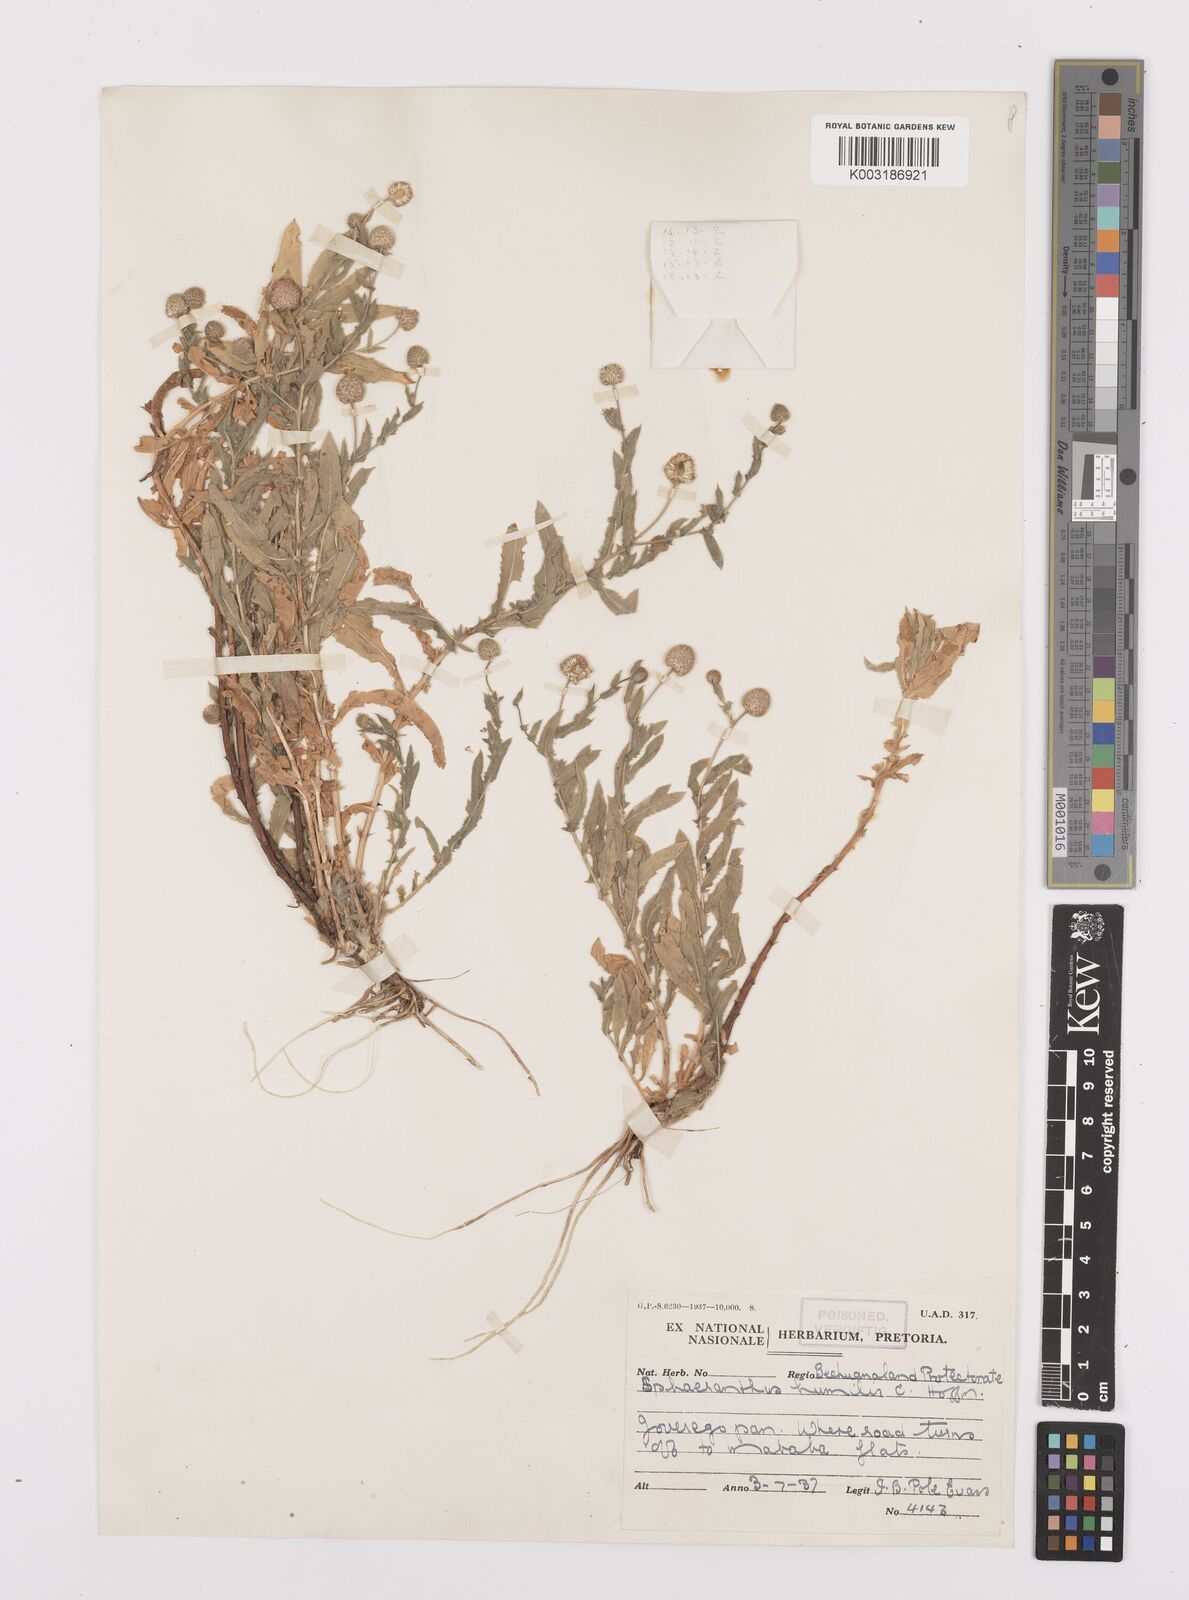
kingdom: Plantae
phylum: Tracheophyta
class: Magnoliopsida
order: Asterales
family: Asteraceae
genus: Sphaeranthus
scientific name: Sphaeranthus flexuosus
